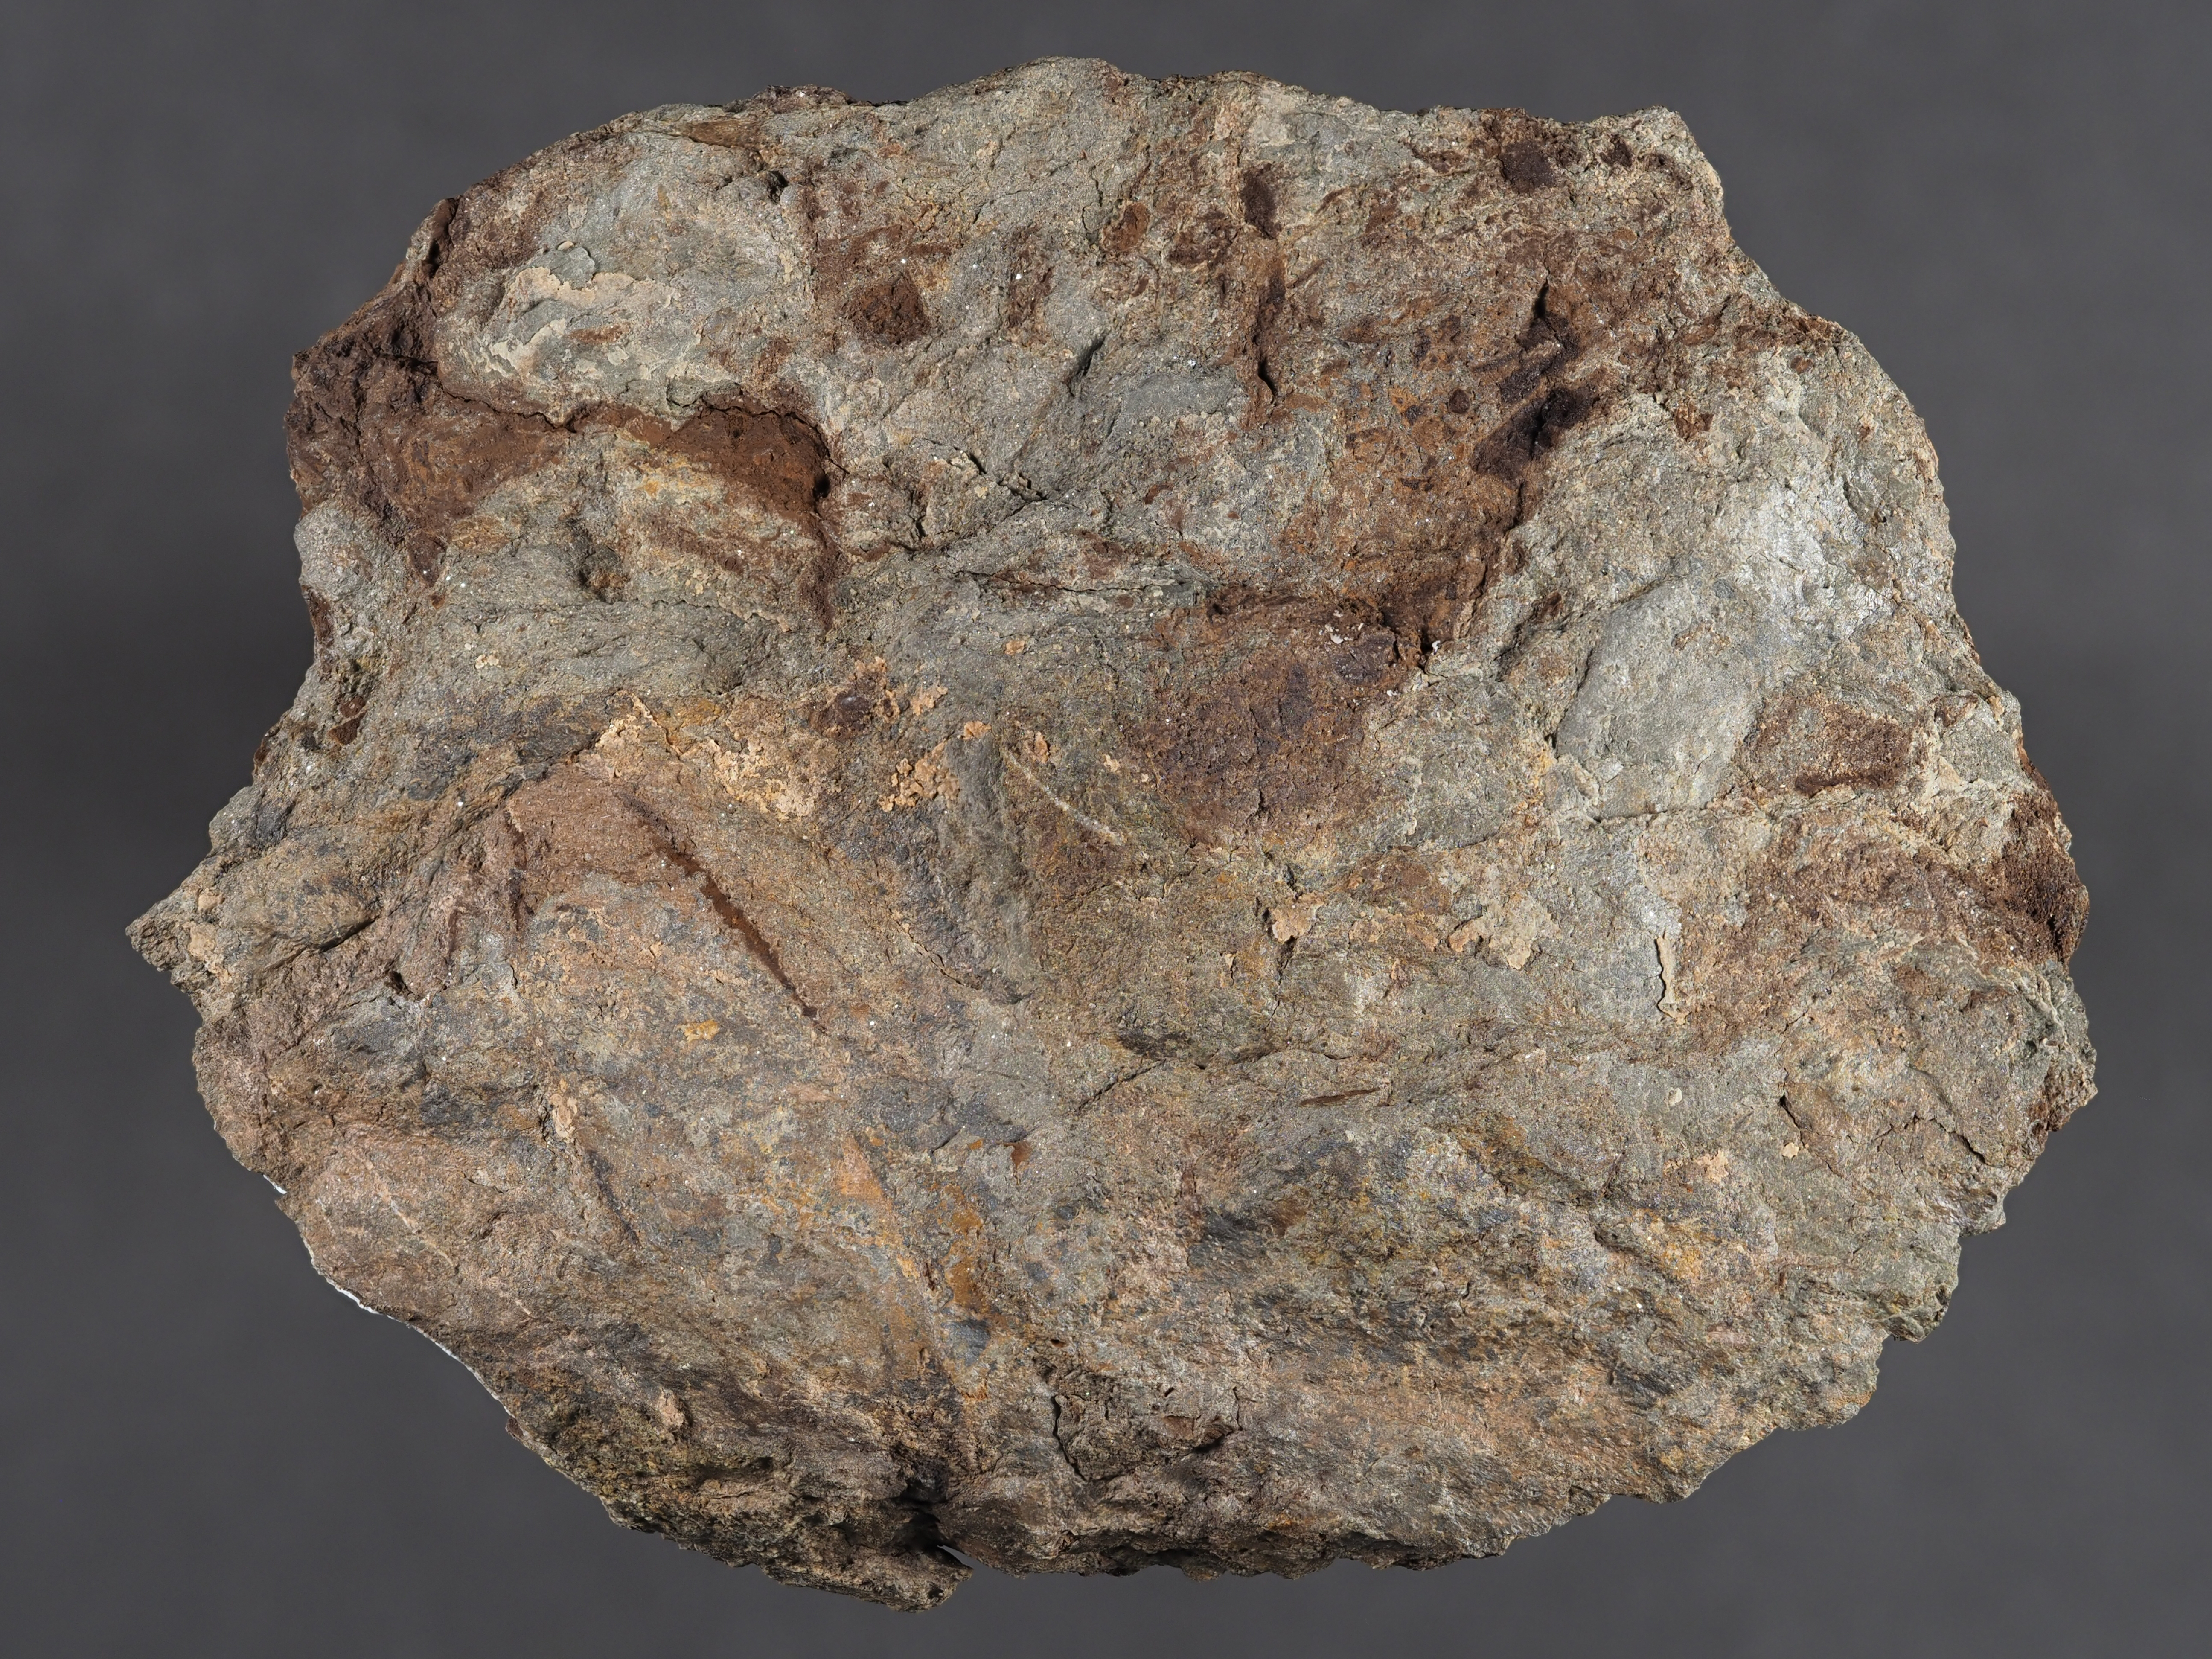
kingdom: Animalia
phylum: Mollusca
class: Bivalvia
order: Myalinida
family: Ambonychiidae
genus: Stappersella
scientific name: Stappersella
